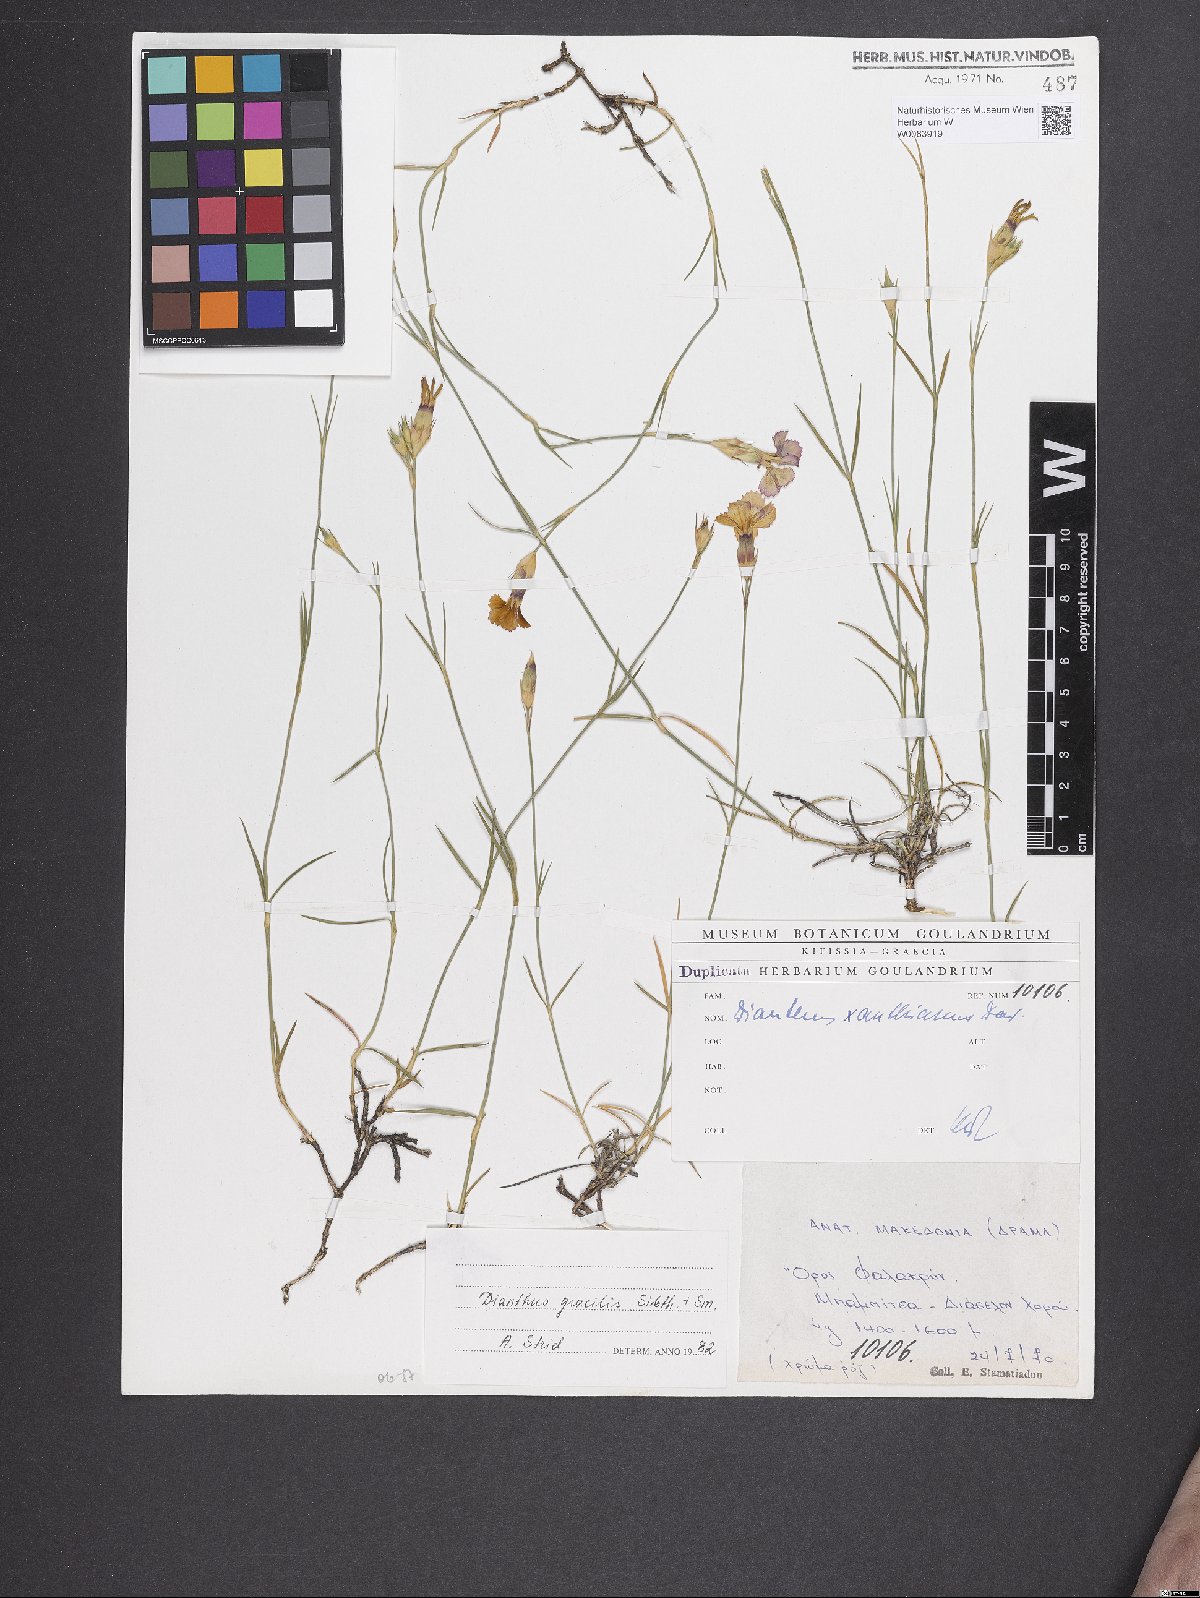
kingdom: Plantae
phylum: Tracheophyta
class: Magnoliopsida
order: Caryophyllales
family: Caryophyllaceae
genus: Dianthus
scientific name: Dianthus gracilis
